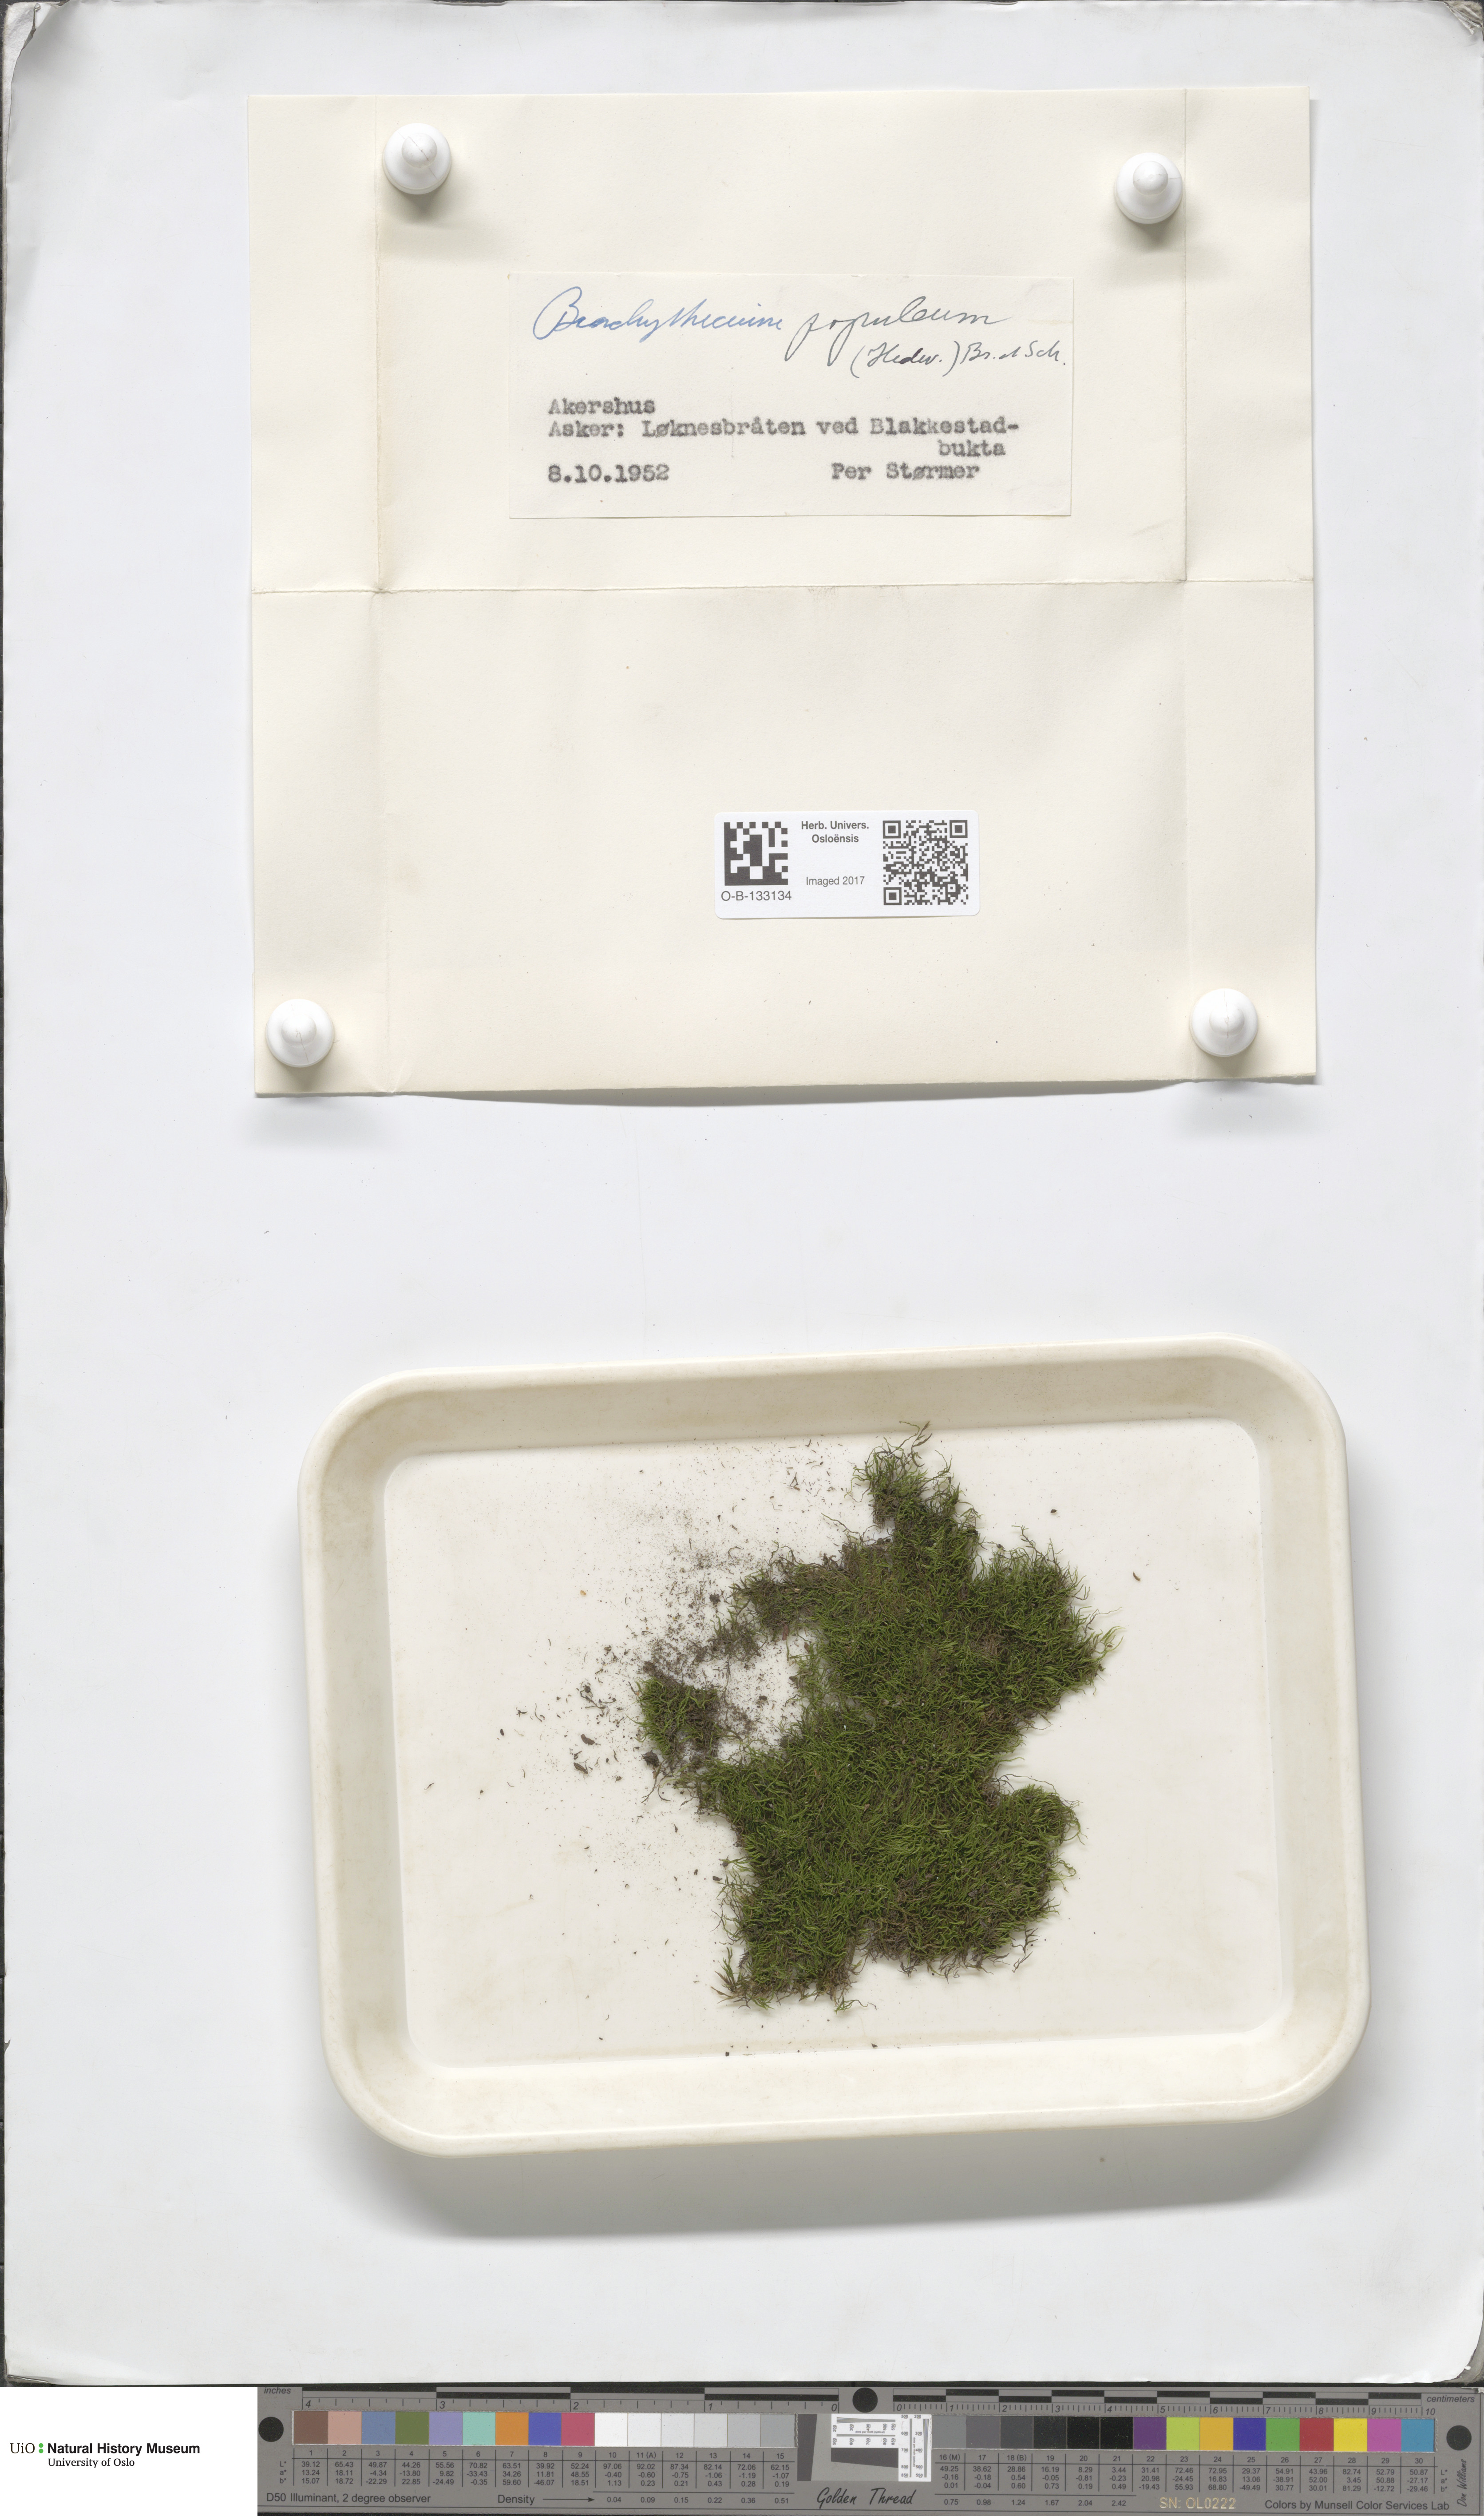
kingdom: Plantae
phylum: Bryophyta
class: Bryopsida
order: Hypnales
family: Brachytheciaceae
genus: Sciuro-hypnum
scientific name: Sciuro-hypnum plumosum
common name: Rusty feather-moss
